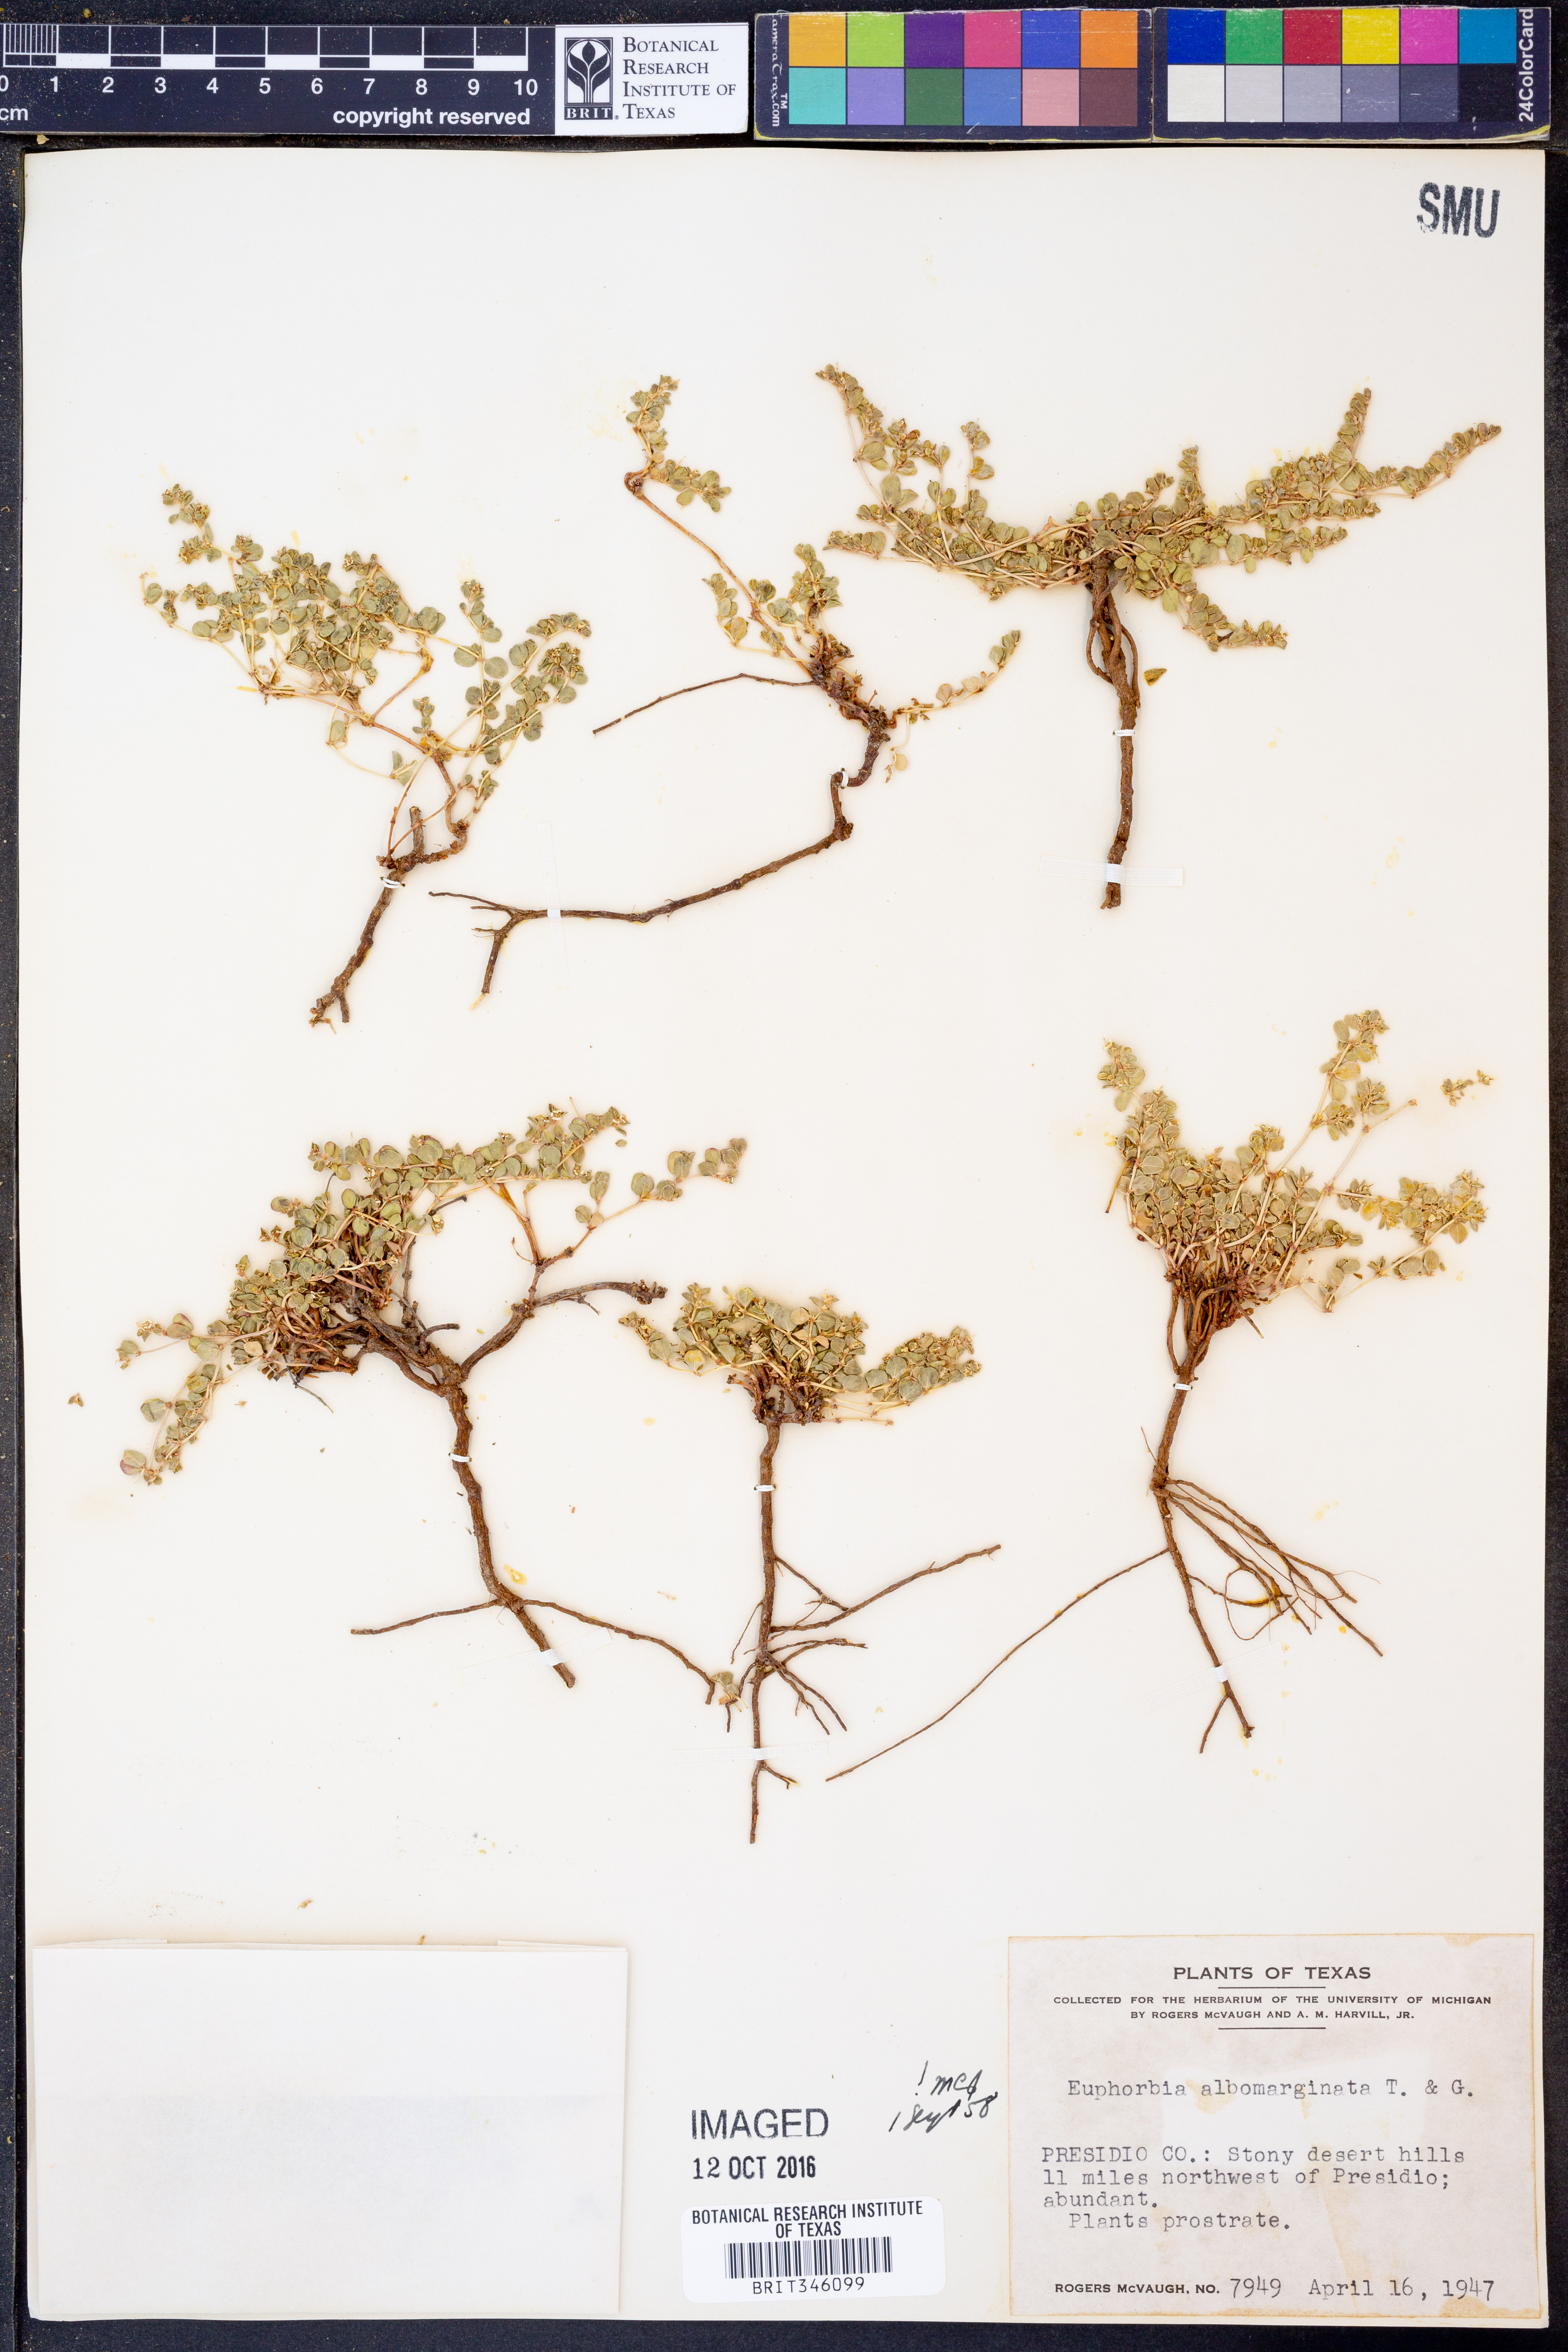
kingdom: Plantae
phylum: Tracheophyta
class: Magnoliopsida
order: Malpighiales
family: Euphorbiaceae
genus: Euphorbia
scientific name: Euphorbia albomarginata
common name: Whitemargin sandmat
